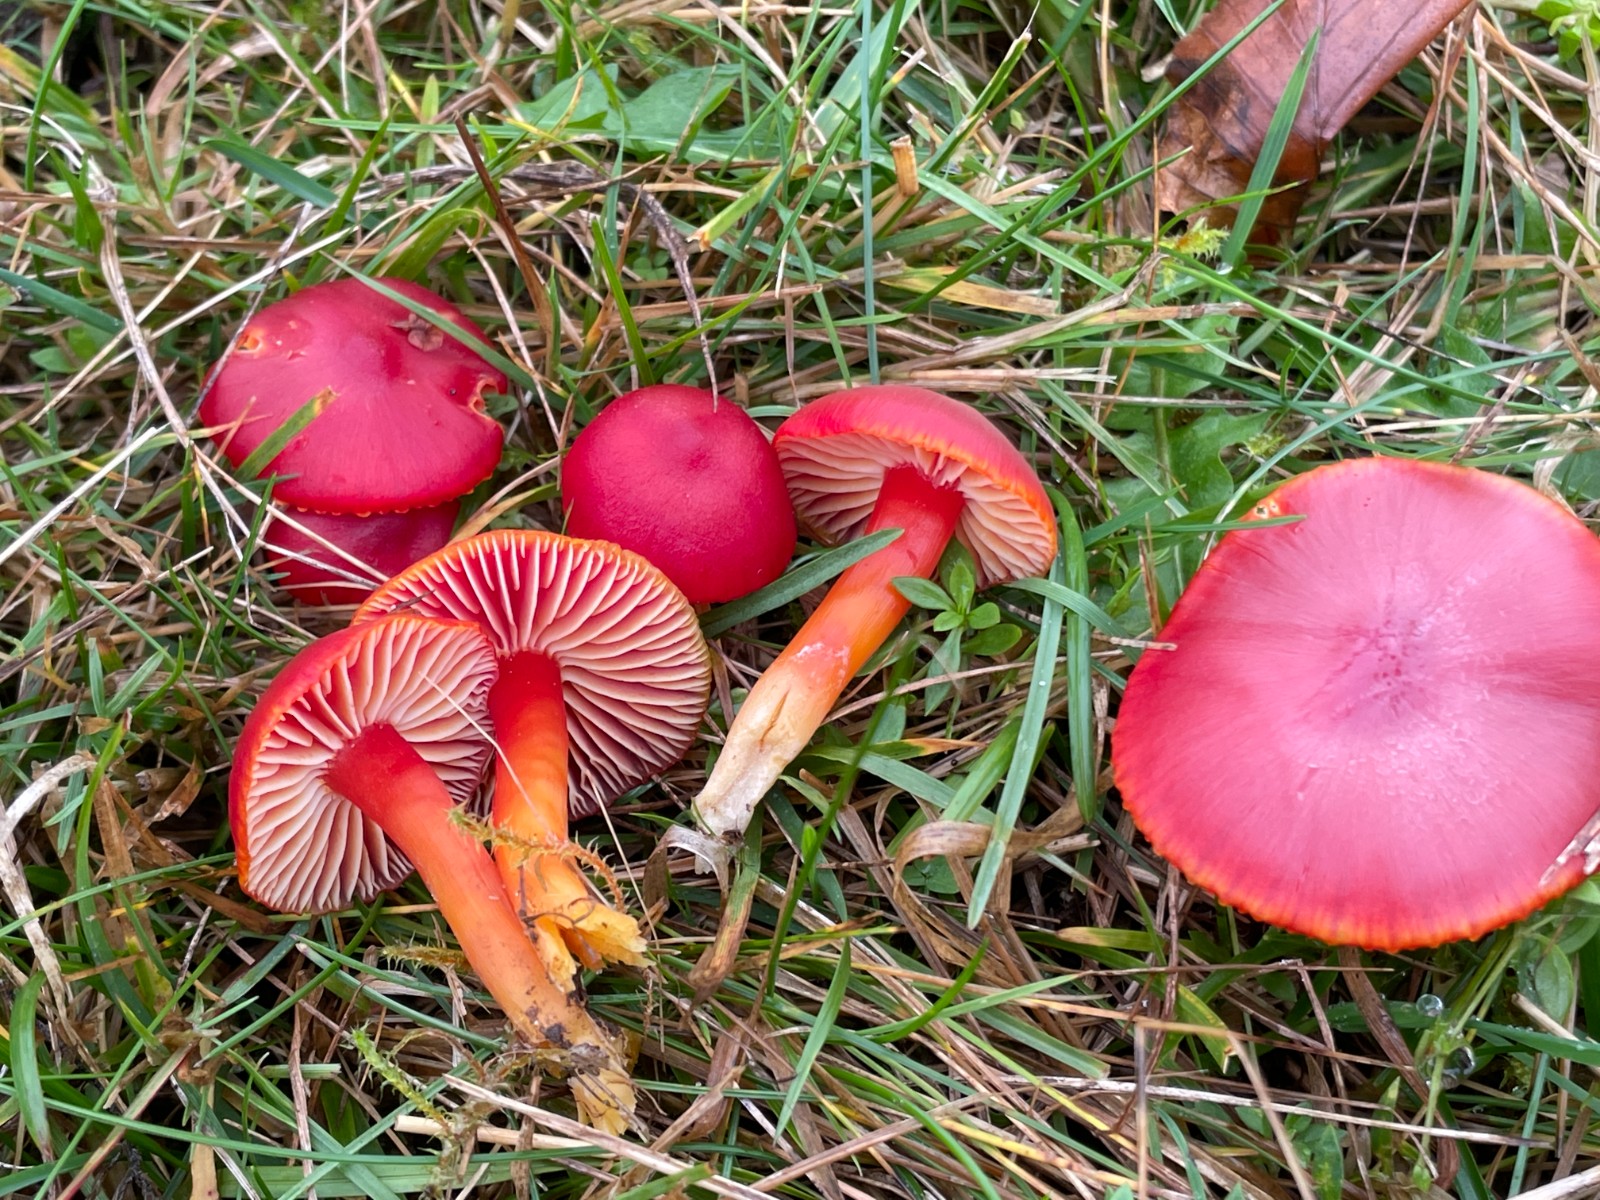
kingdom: Fungi
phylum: Basidiomycota
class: Agaricomycetes
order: Agaricales
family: Hygrophoraceae
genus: Hygrocybe
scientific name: Hygrocybe coccinea
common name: cinnober-vokshat
